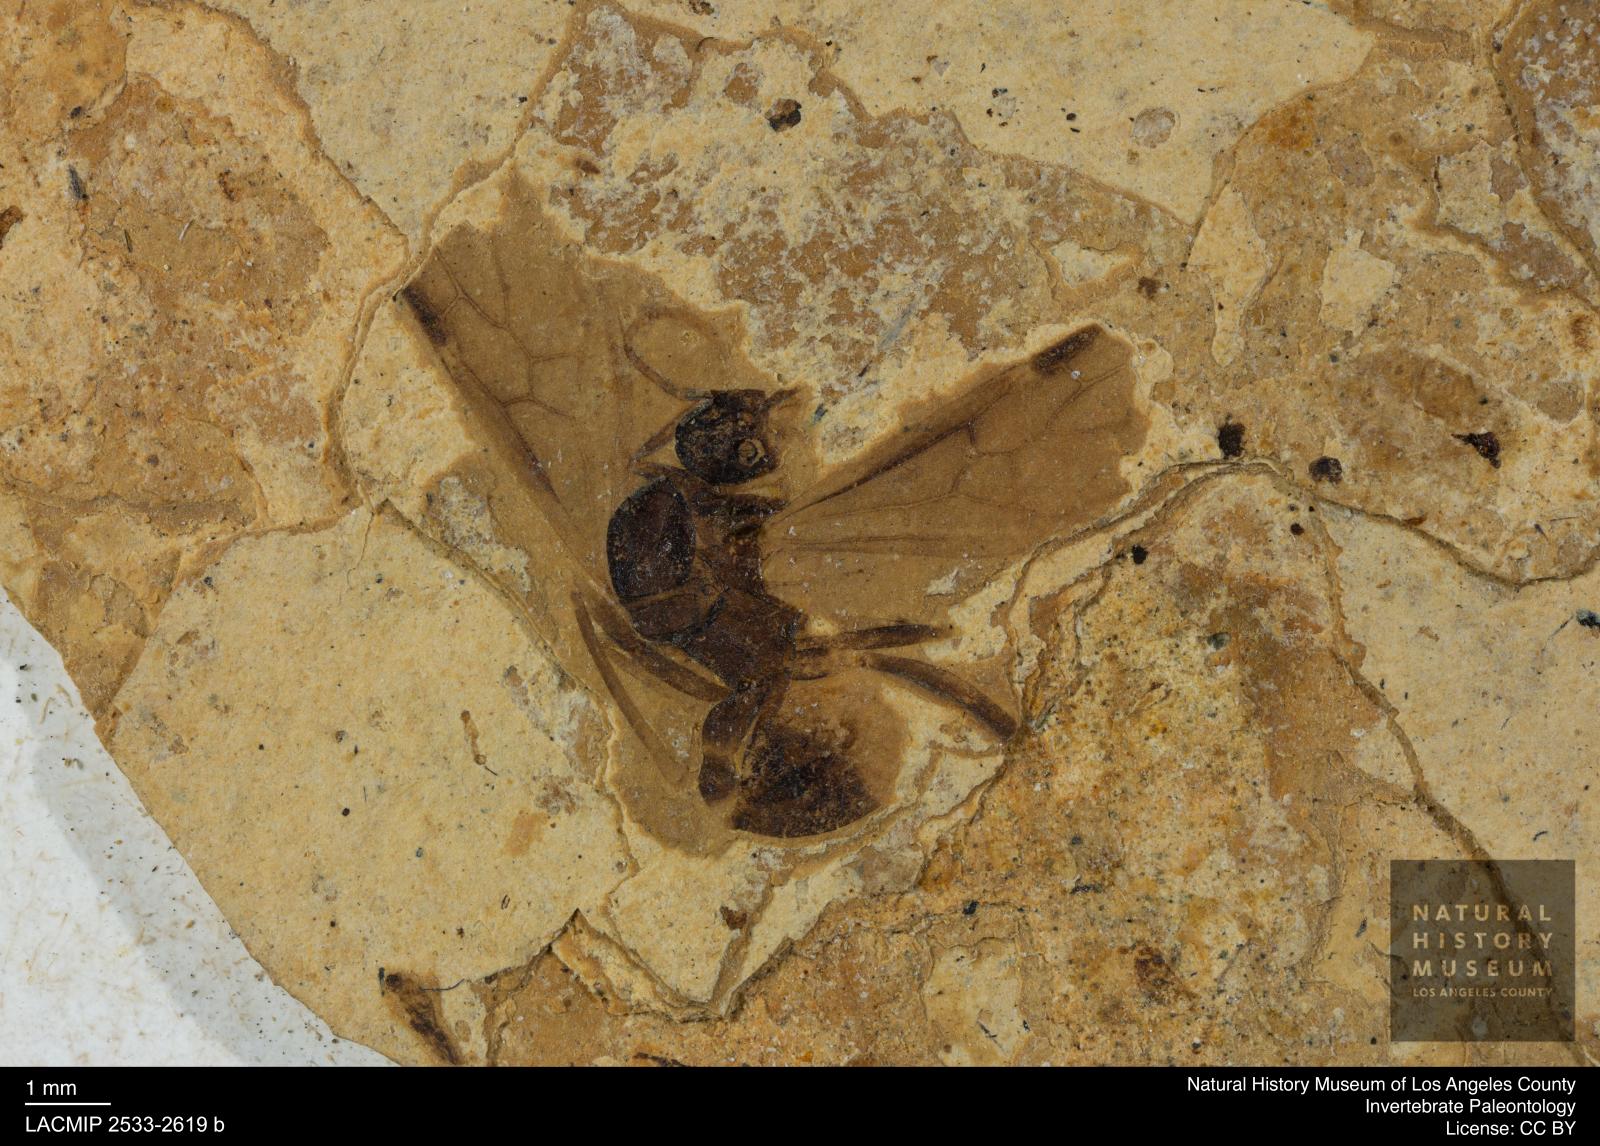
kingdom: Animalia
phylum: Arthropoda
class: Insecta
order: Hymenoptera
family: Formicidae
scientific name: Formicidae
